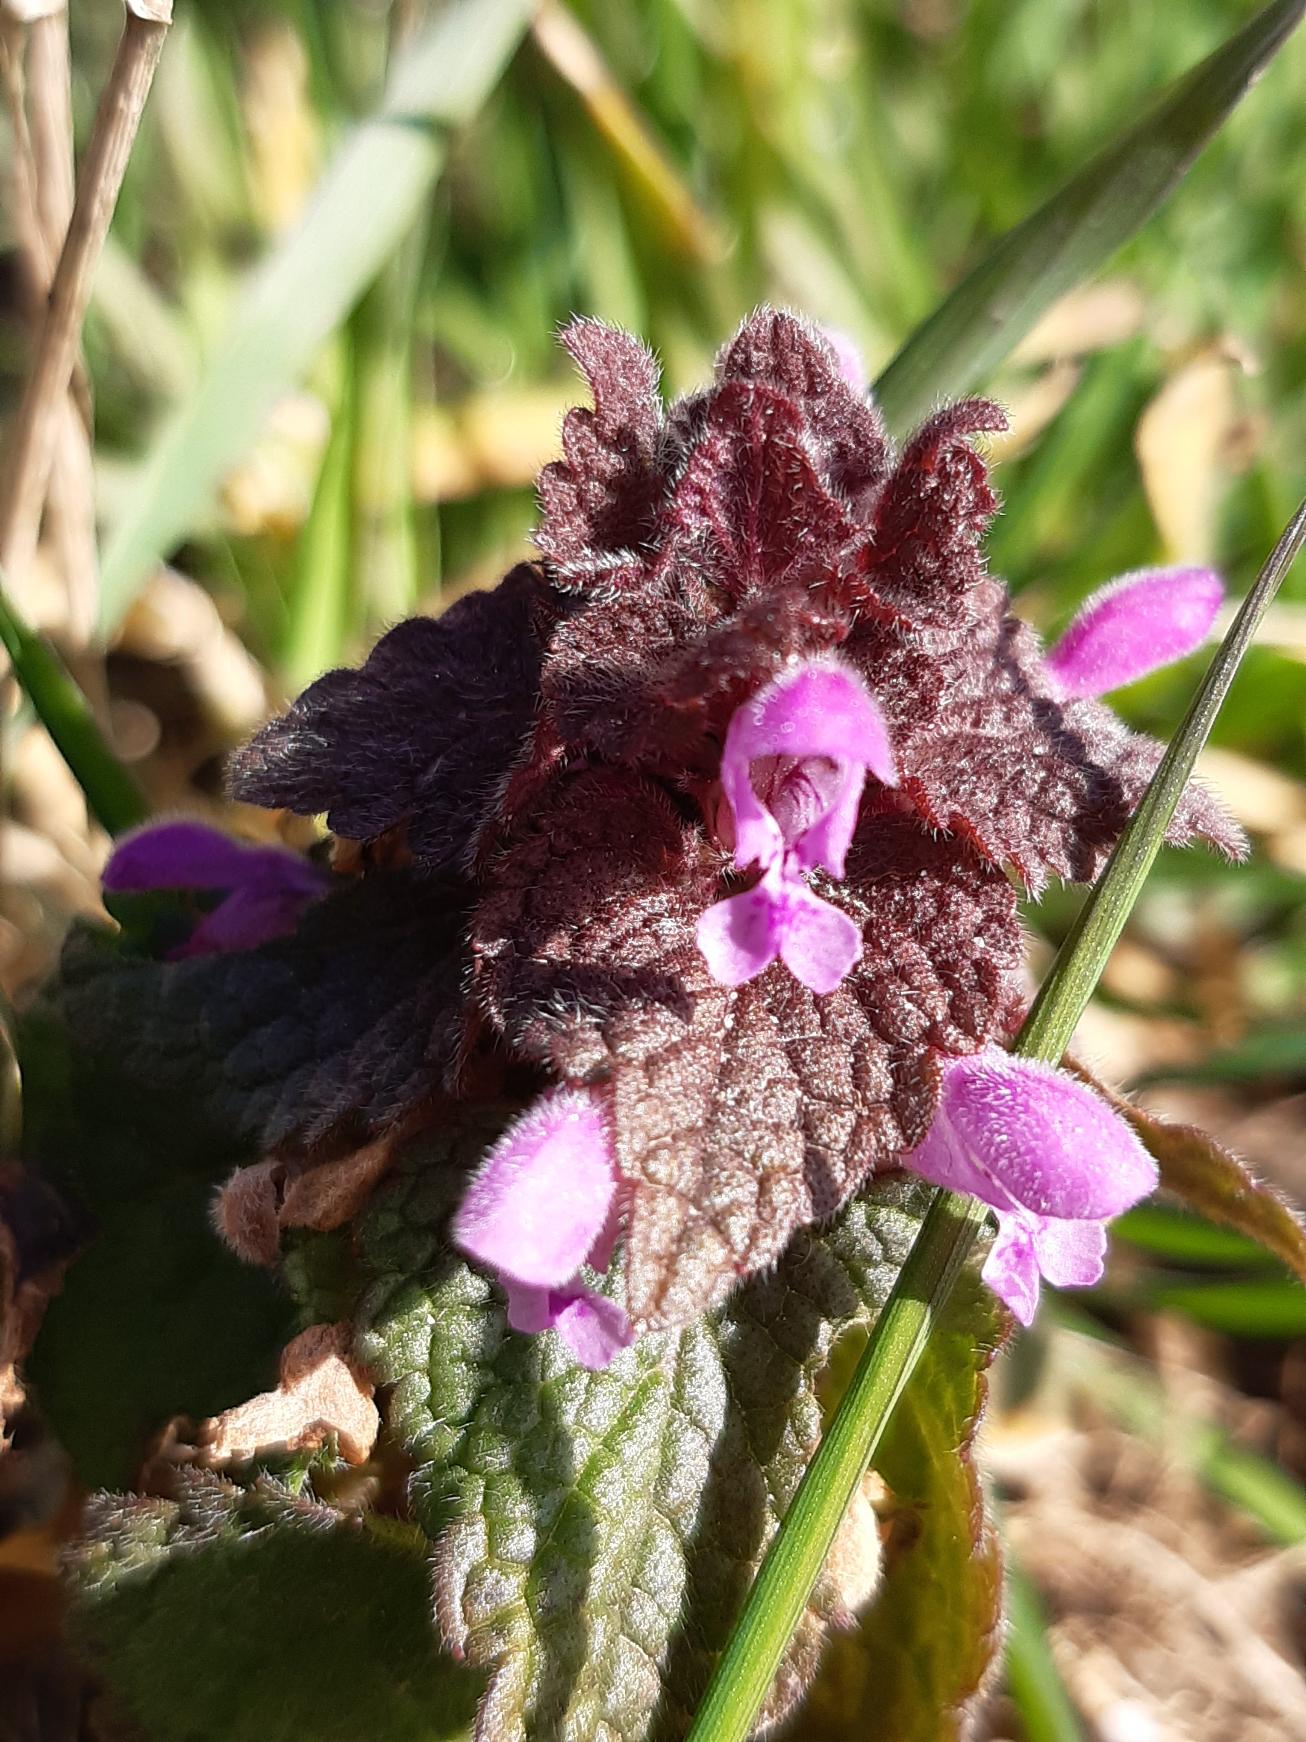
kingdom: Plantae
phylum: Tracheophyta
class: Magnoliopsida
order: Lamiales
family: Lamiaceae
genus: Lamium
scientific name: Lamium purpureum
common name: Rød tvetand
